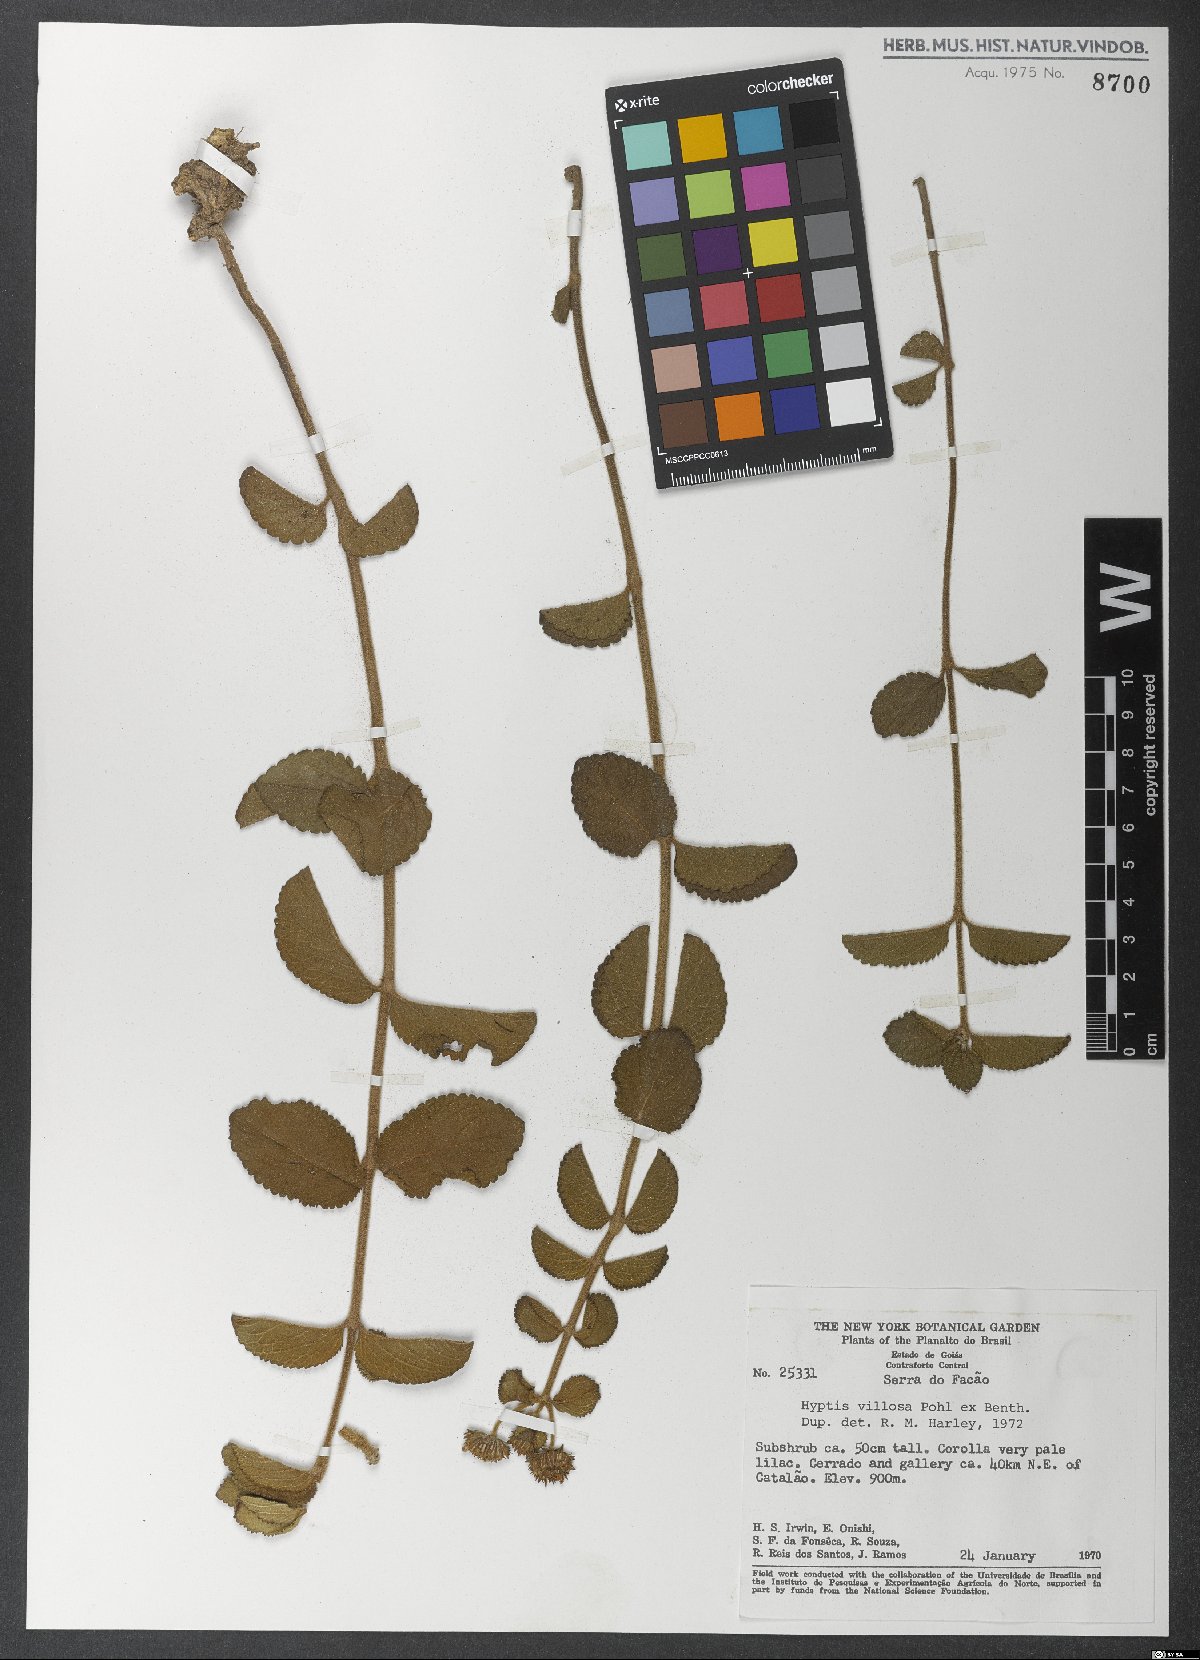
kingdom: Plantae
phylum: Tracheophyta
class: Magnoliopsida
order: Lamiales
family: Lamiaceae
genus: Hyptis
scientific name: Hyptis villosa
